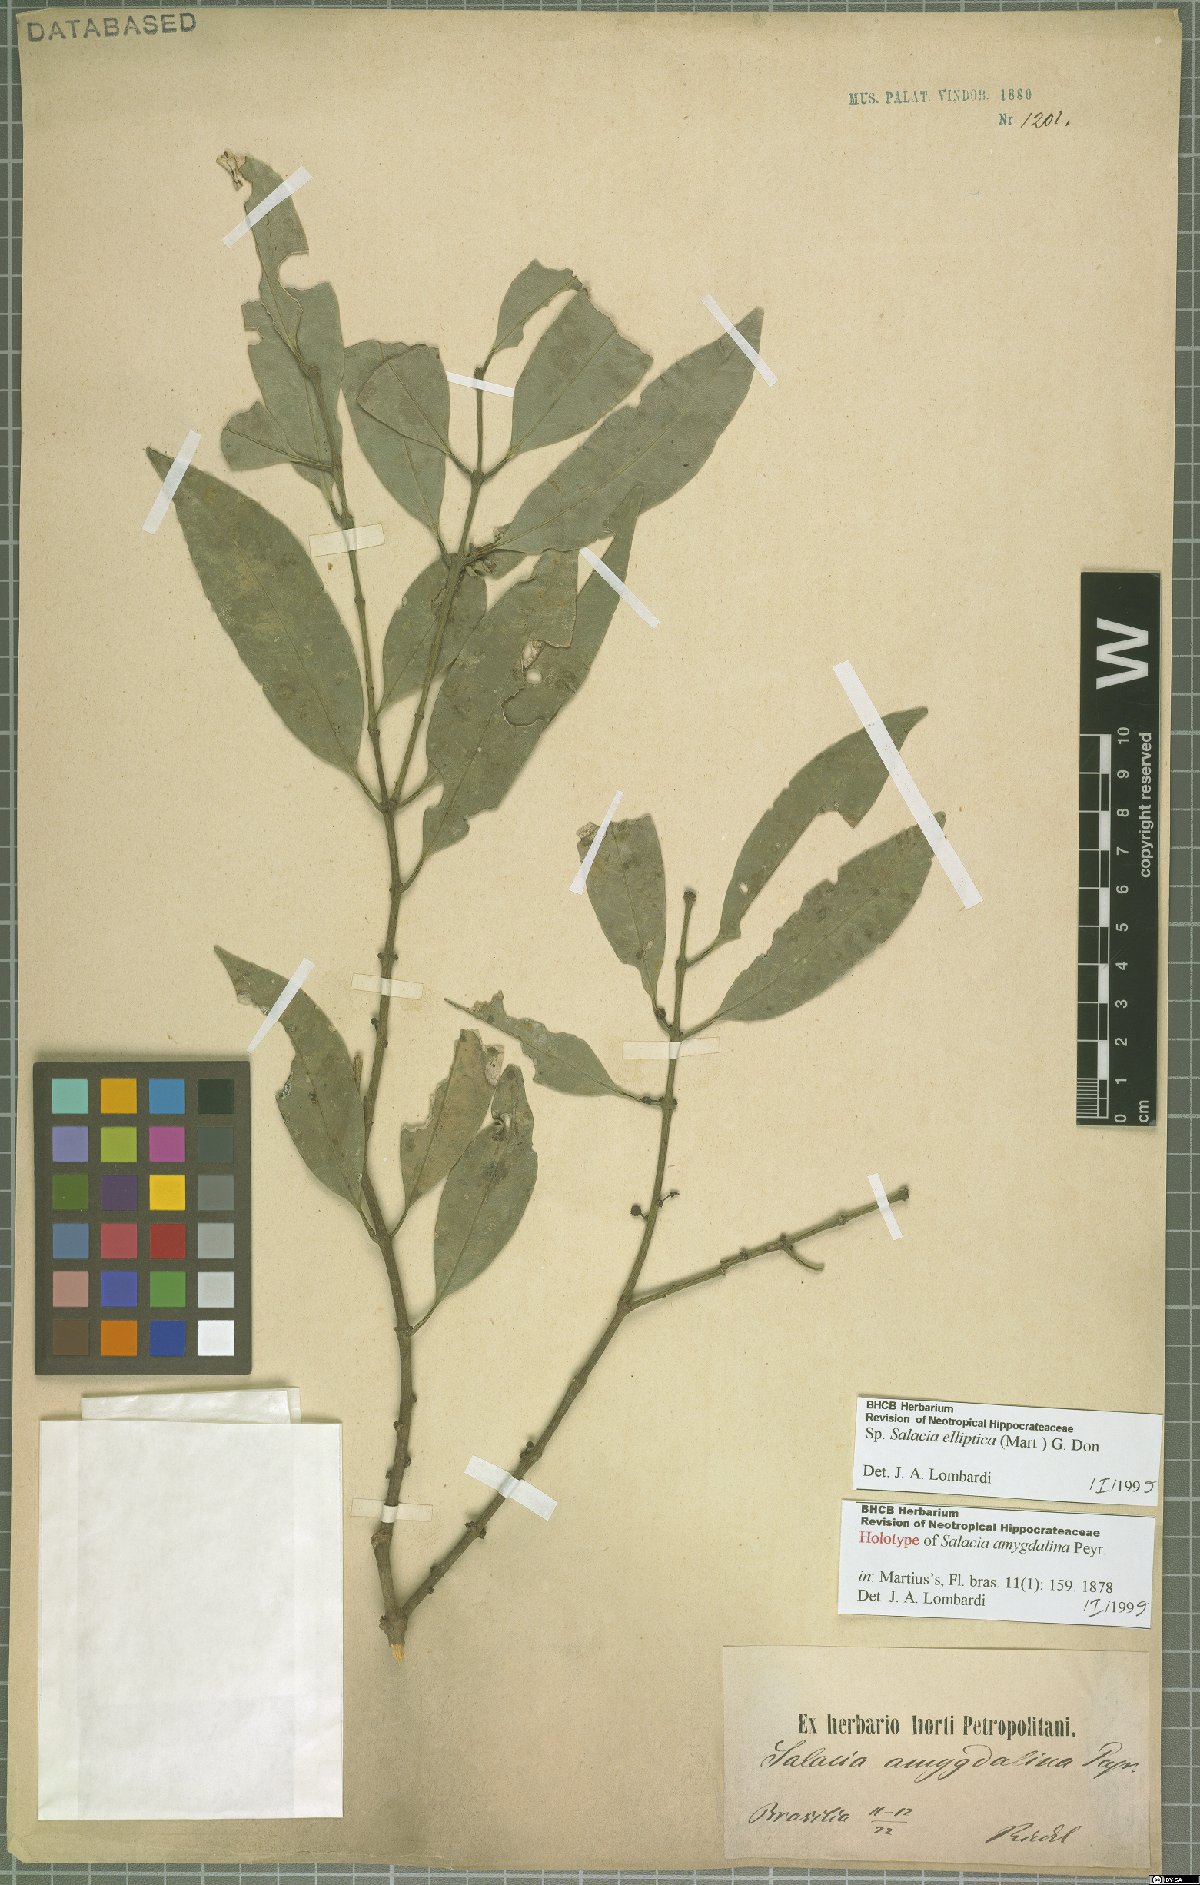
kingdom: Plantae
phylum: Tracheophyta
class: Magnoliopsida
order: Celastrales
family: Celastraceae
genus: Salacia
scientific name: Salacia elliptica
